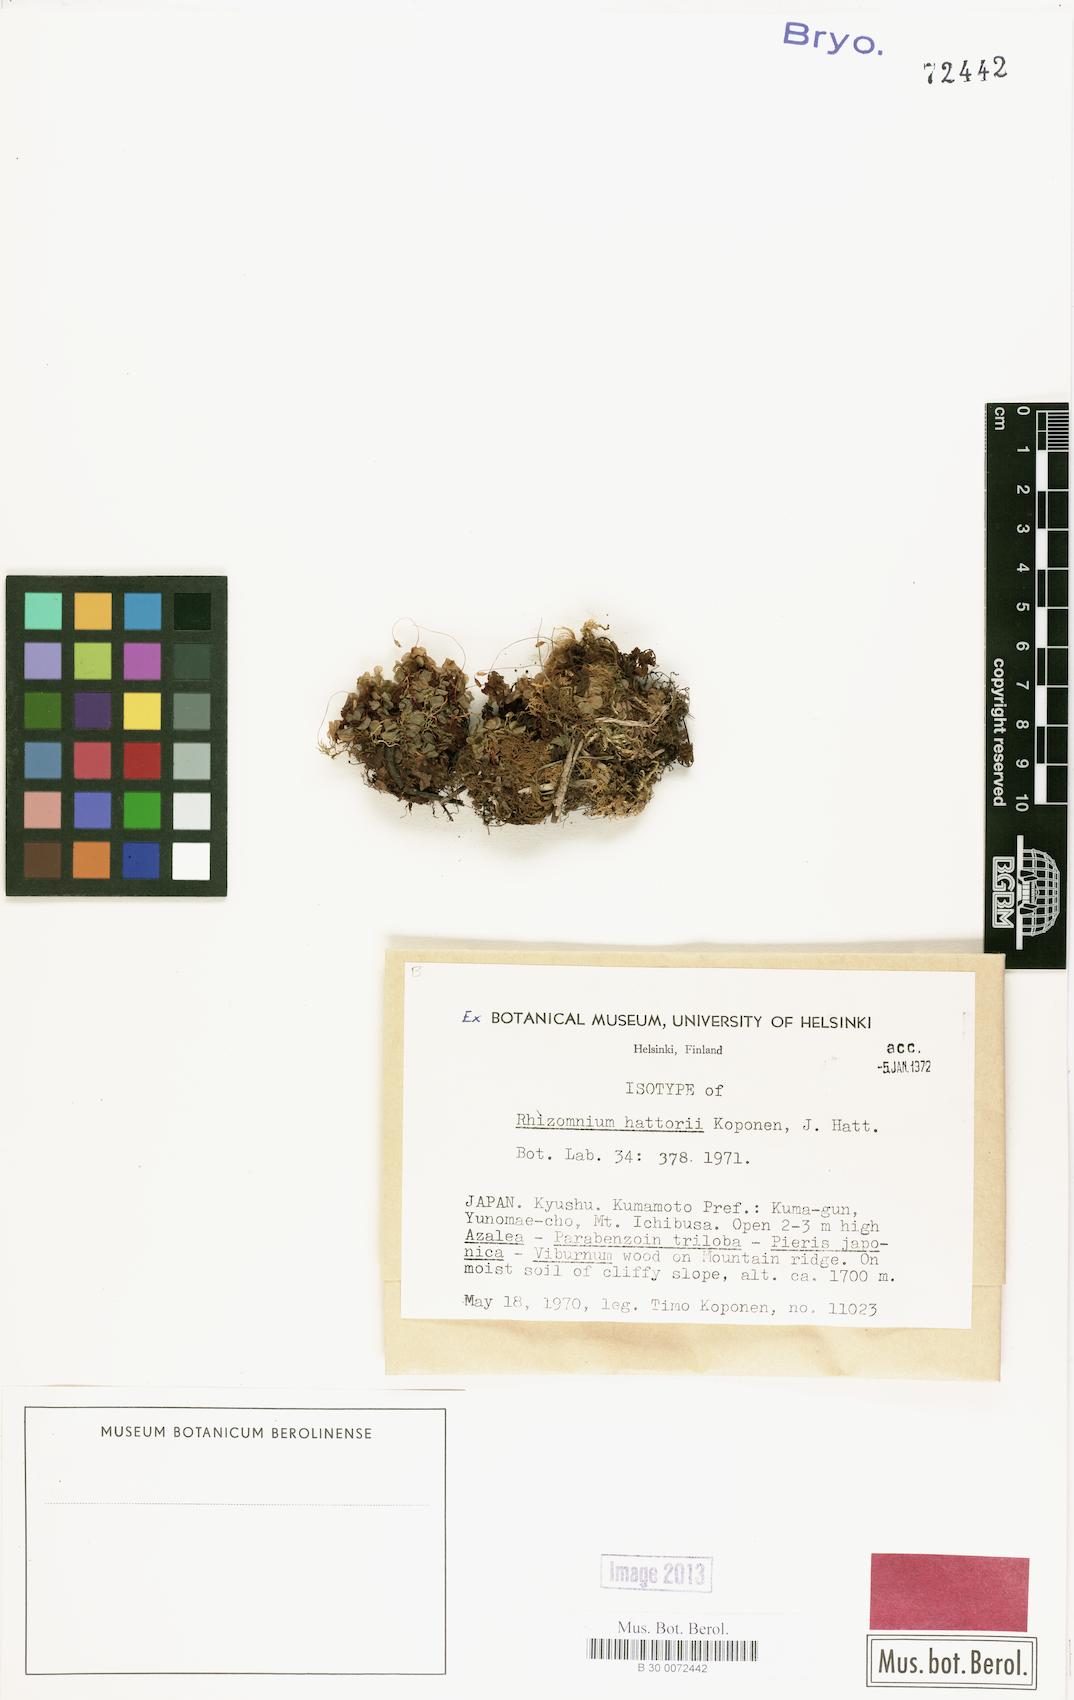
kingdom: Plantae
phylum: Bryophyta
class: Bryopsida
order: Bryales
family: Mniaceae
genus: Rhizomnium
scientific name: Rhizomnium hattorii
